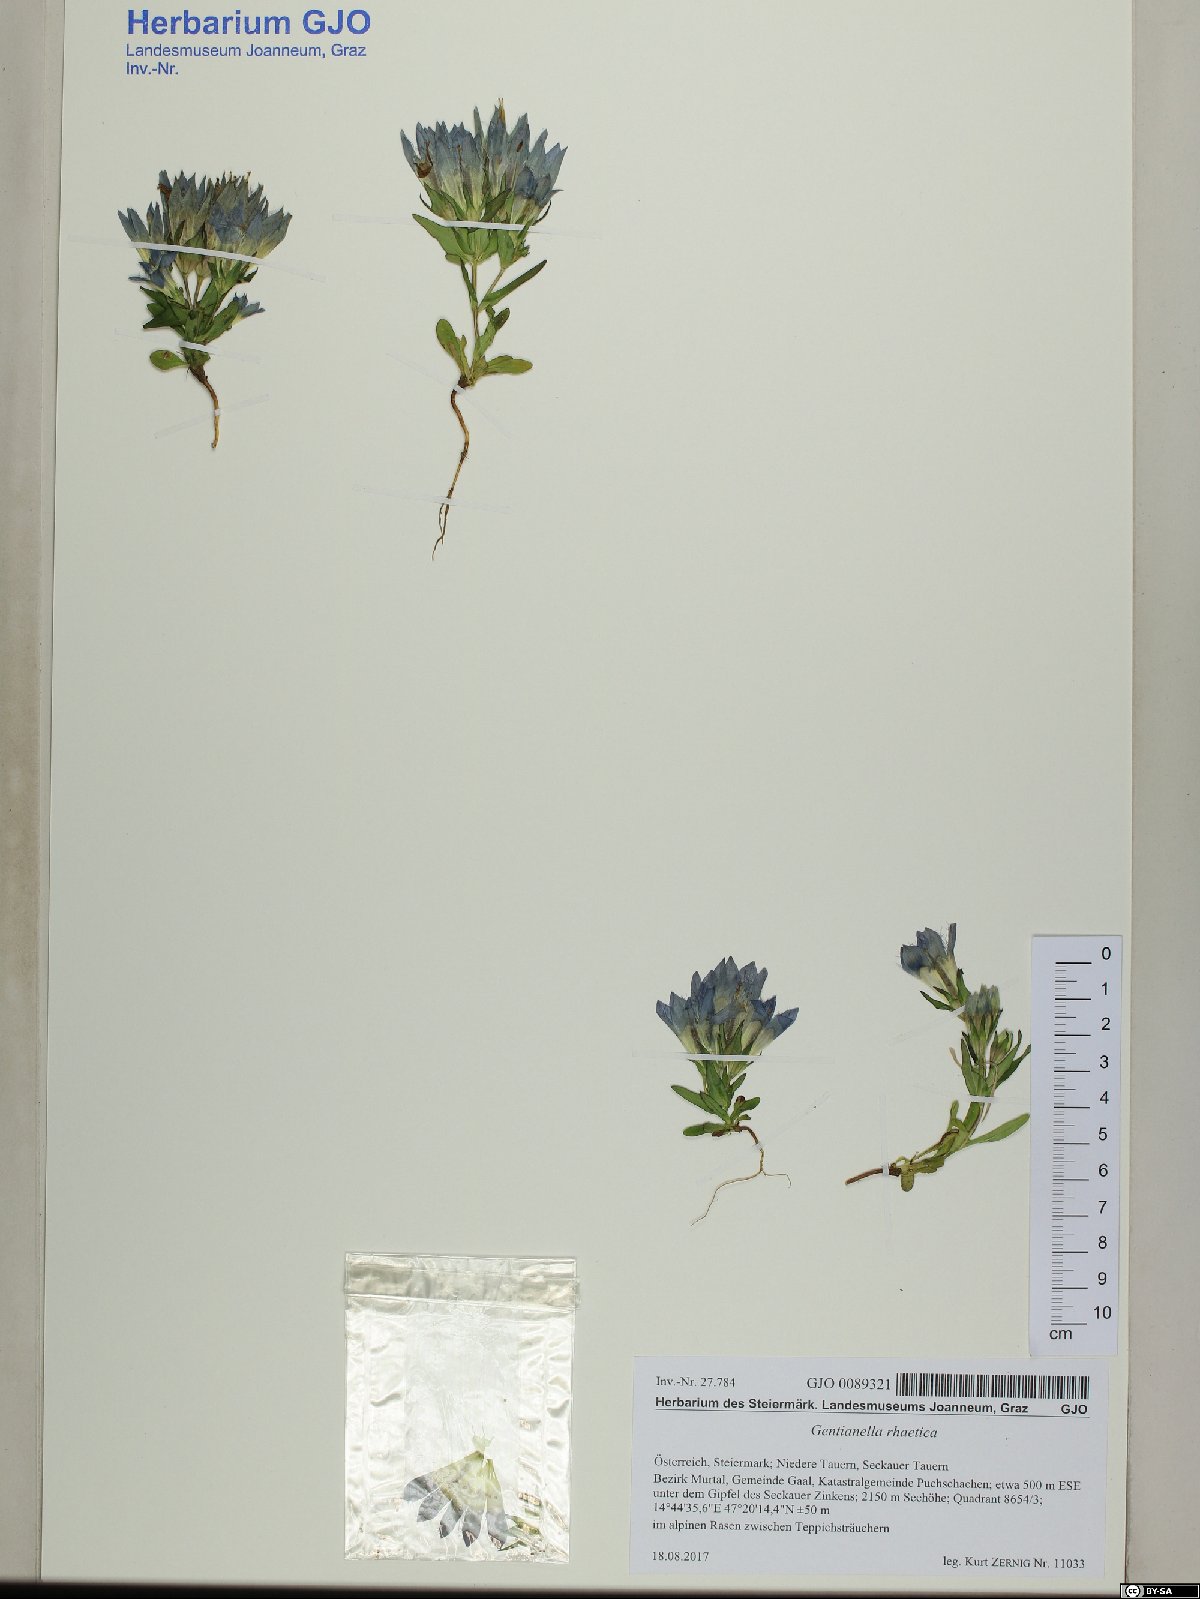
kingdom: Plantae
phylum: Tracheophyta
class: Magnoliopsida
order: Gentianales
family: Gentianaceae
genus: Gentianella
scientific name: Gentianella rhaetica
